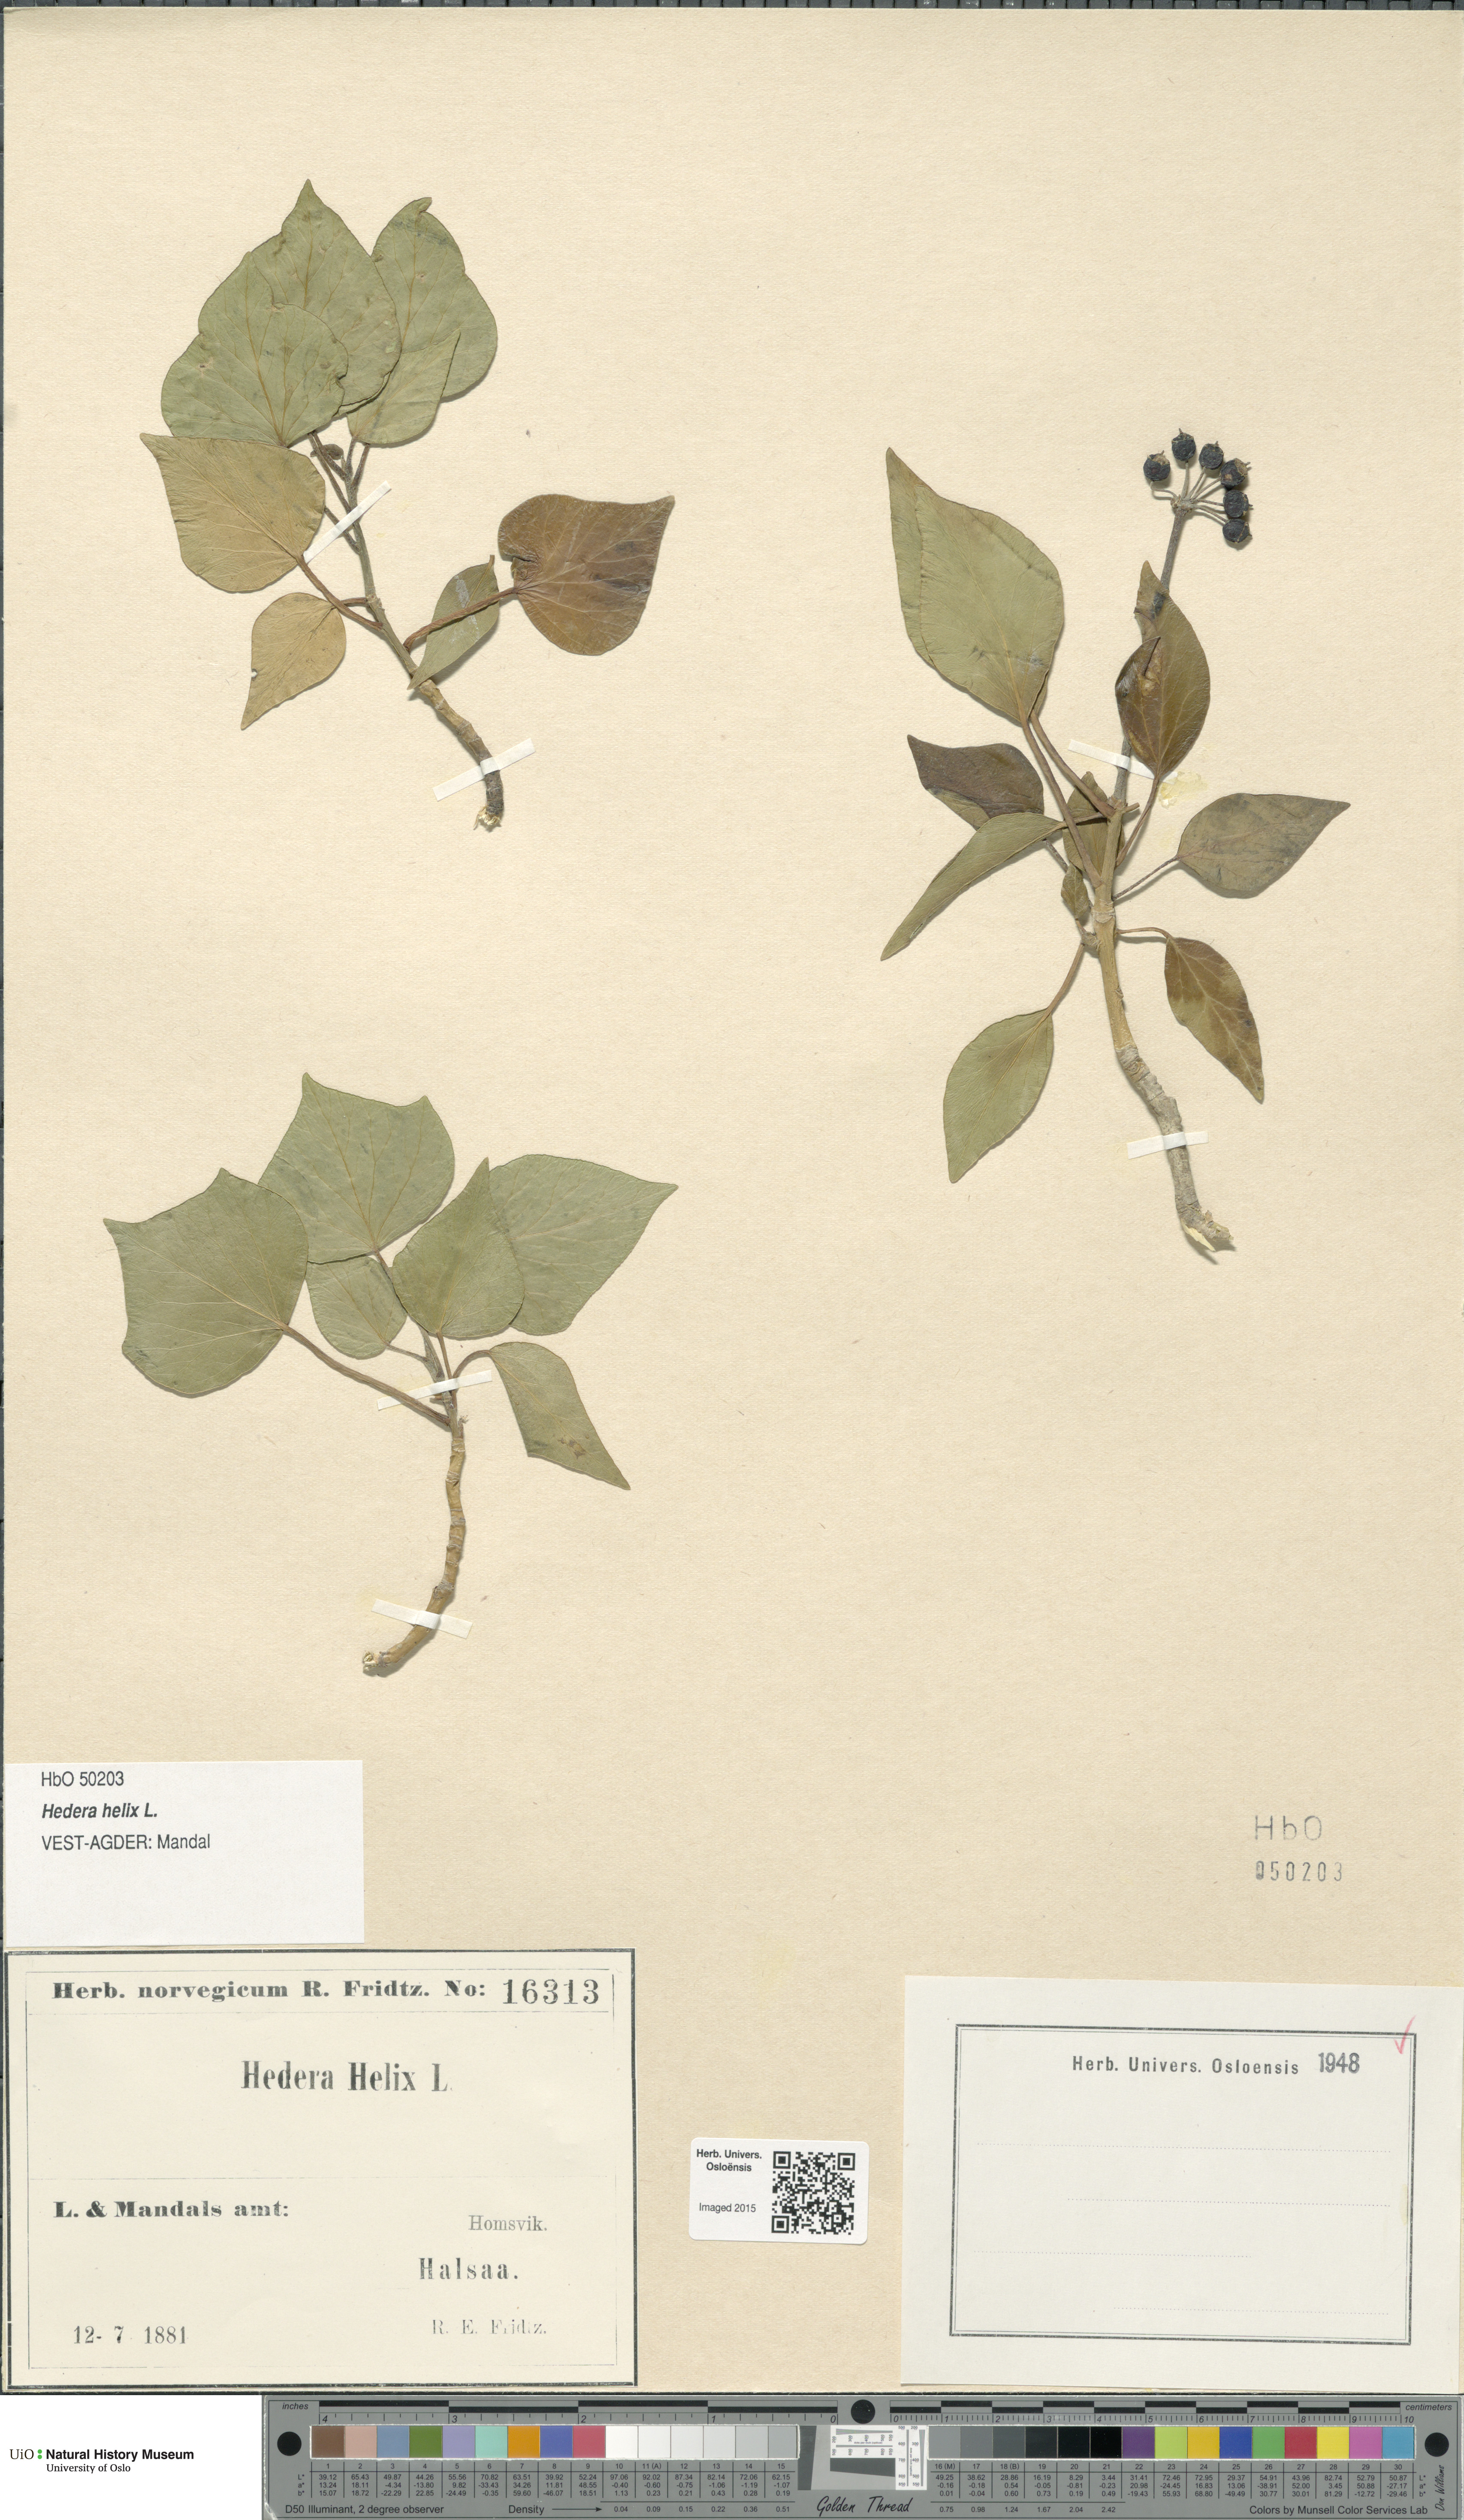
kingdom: Plantae
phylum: Tracheophyta
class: Magnoliopsida
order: Apiales
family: Araliaceae
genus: Hedera
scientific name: Hedera helix
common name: Ivy
